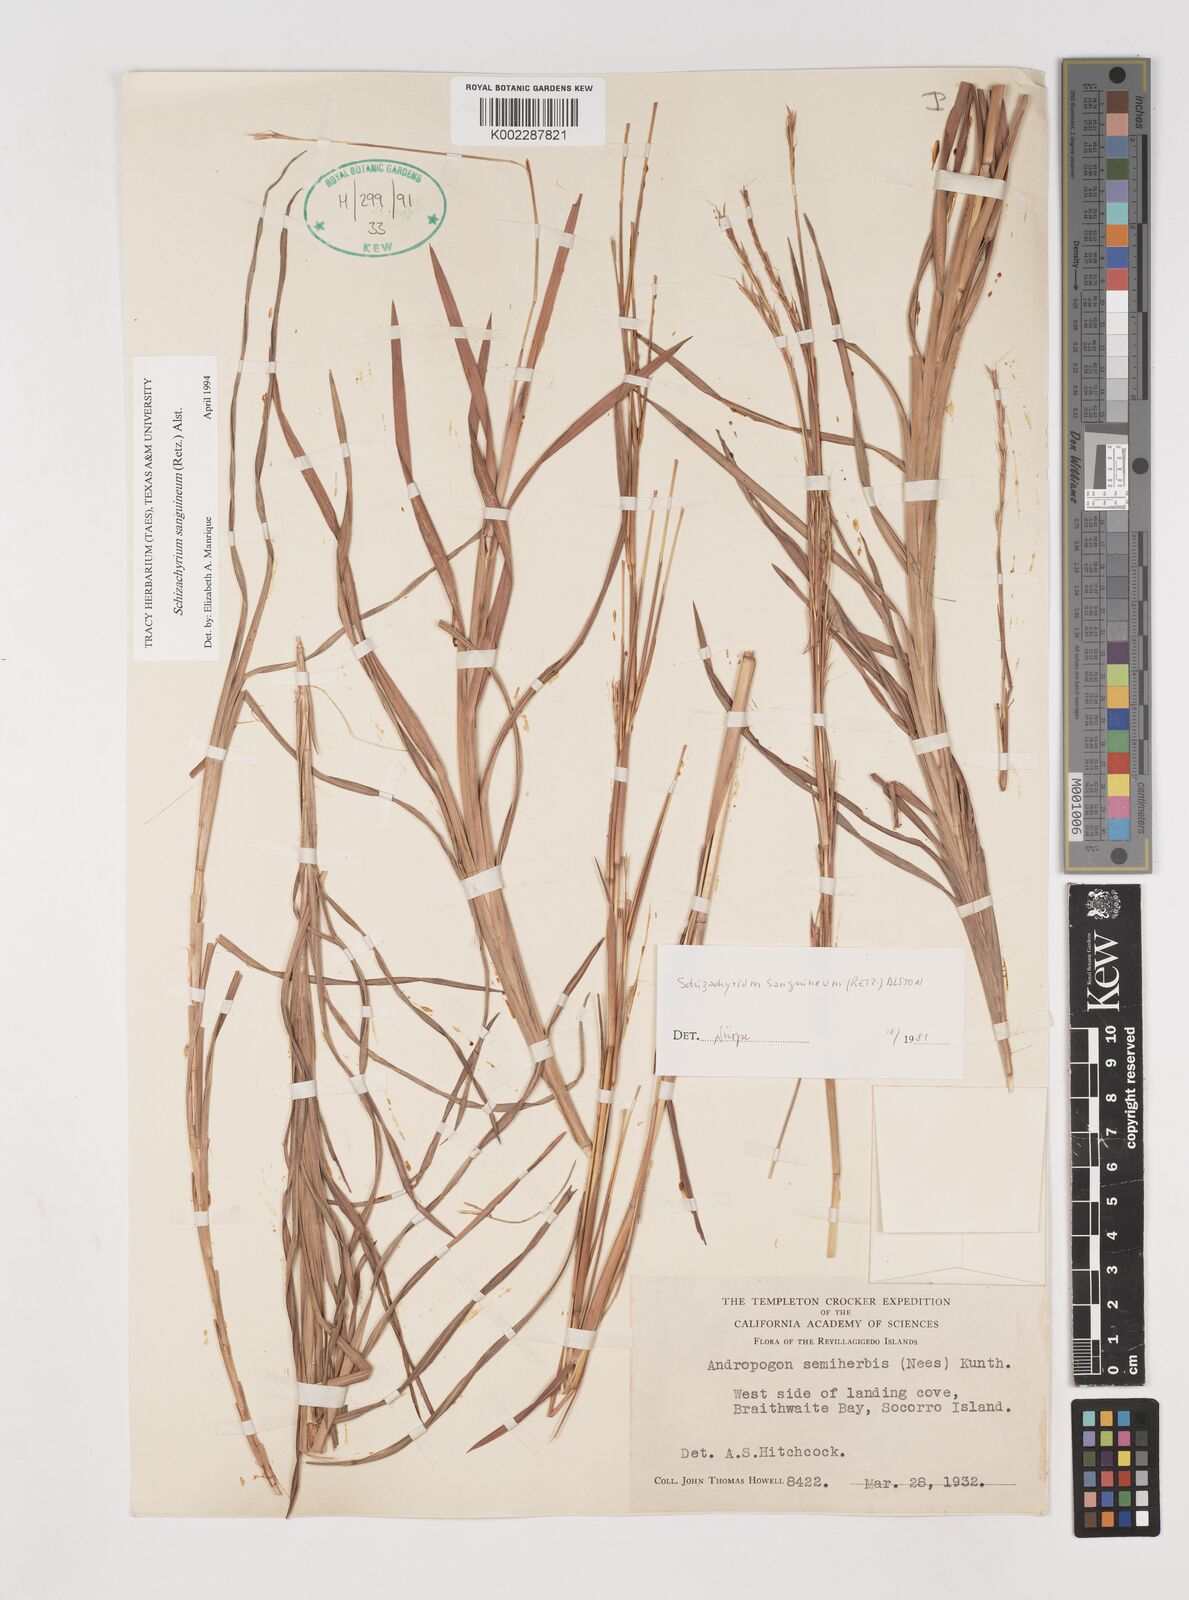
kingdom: Plantae
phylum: Tracheophyta
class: Liliopsida
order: Poales
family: Poaceae
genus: Schizachyrium
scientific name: Schizachyrium sanguineum
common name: Crimson bluestem
